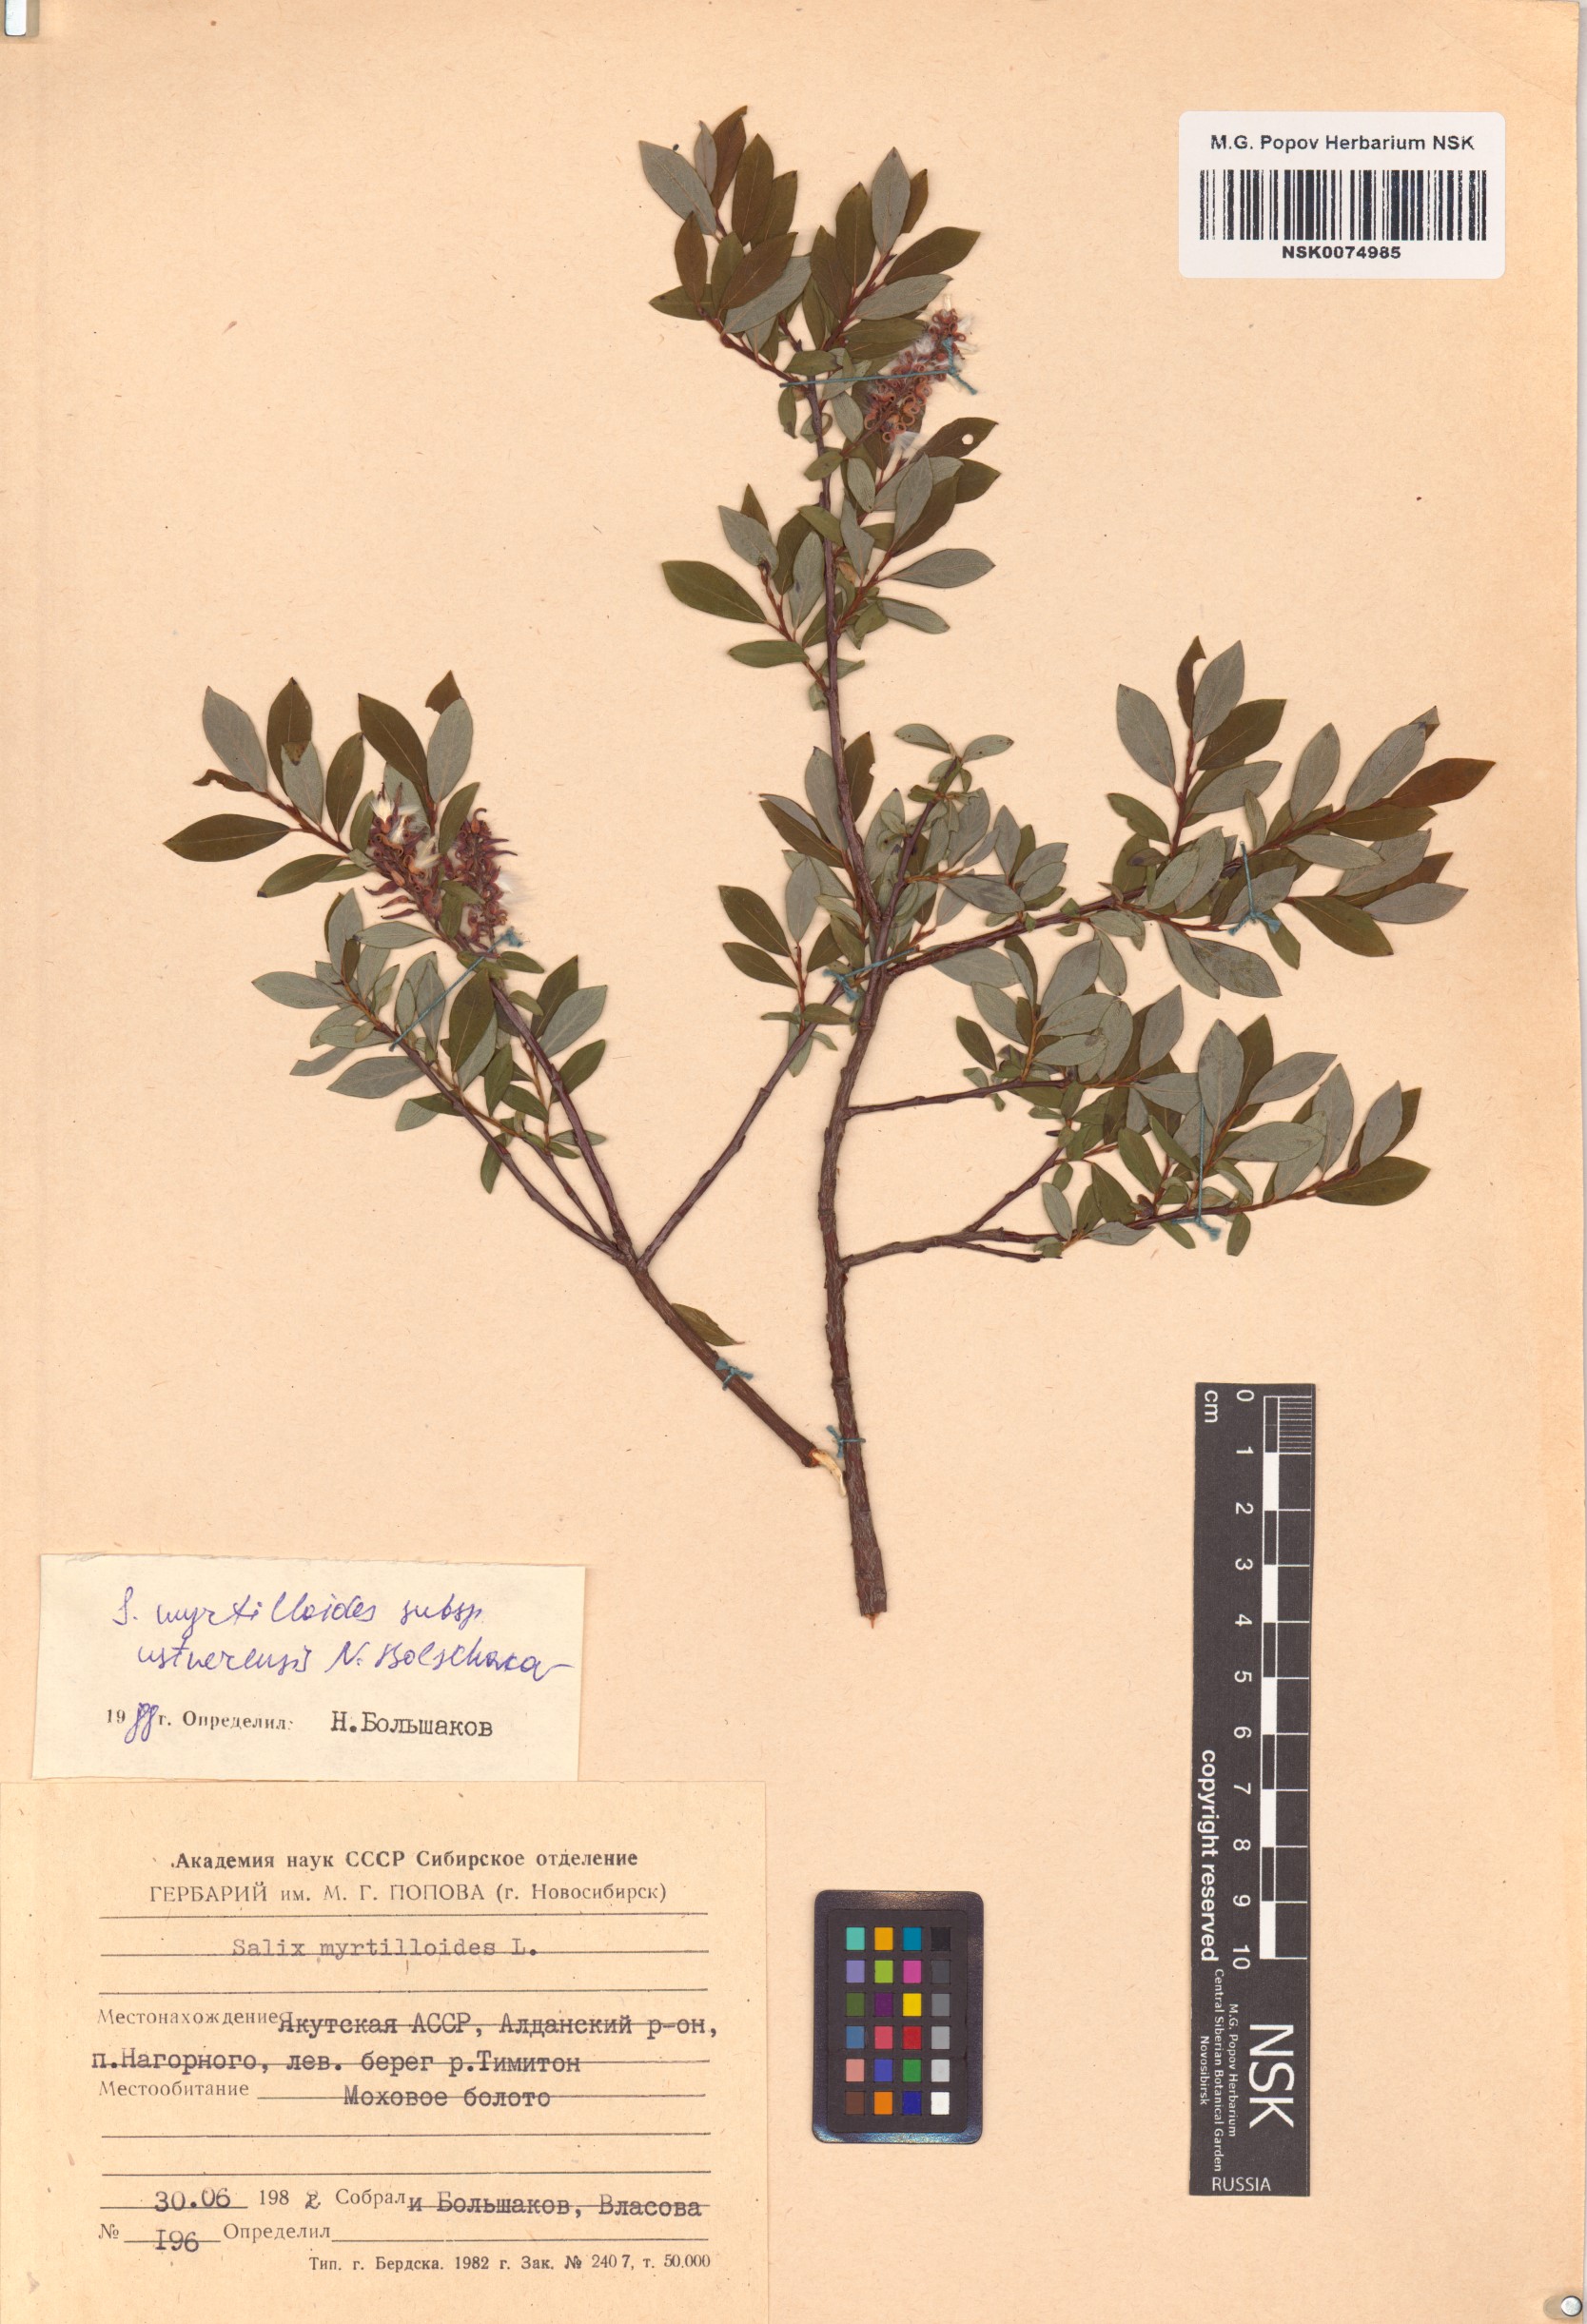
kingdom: Plantae
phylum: Tracheophyta
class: Magnoliopsida
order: Malpighiales
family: Salicaceae
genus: Salix
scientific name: Salix ustnerensis
